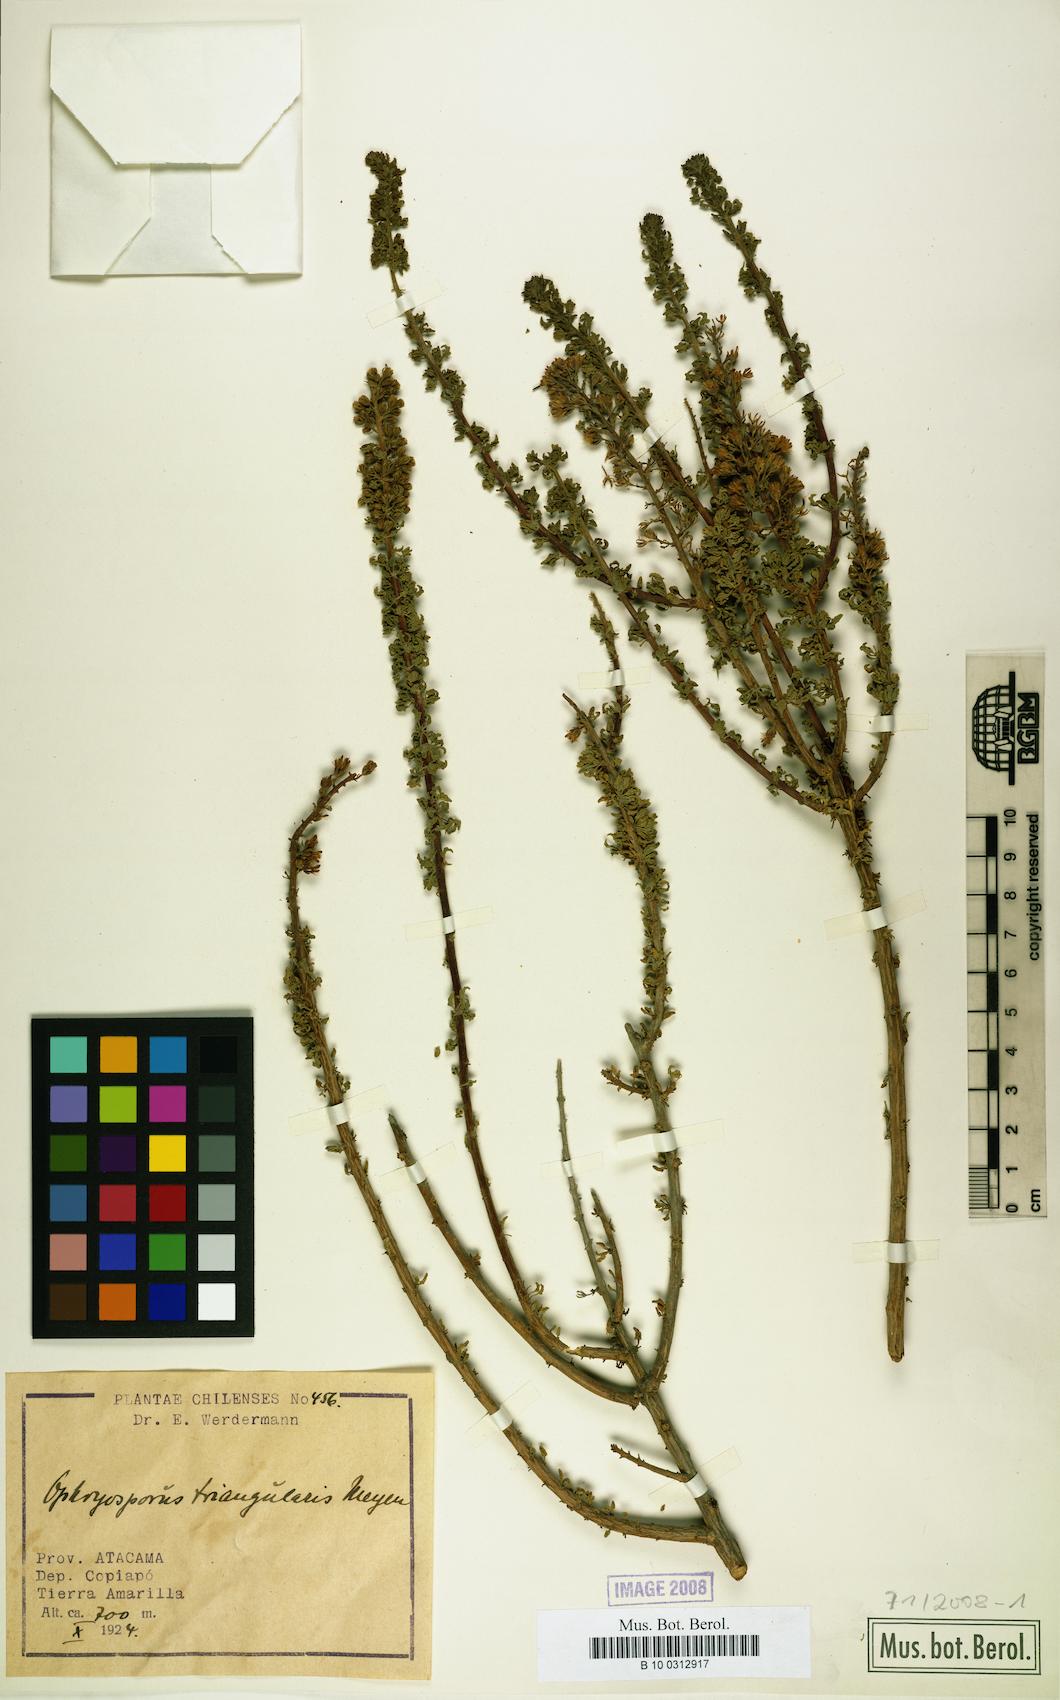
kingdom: Plantae
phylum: Tracheophyta
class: Magnoliopsida
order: Asterales
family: Asteraceae
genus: Ophryosporus
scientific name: Ophryosporus triangularis
